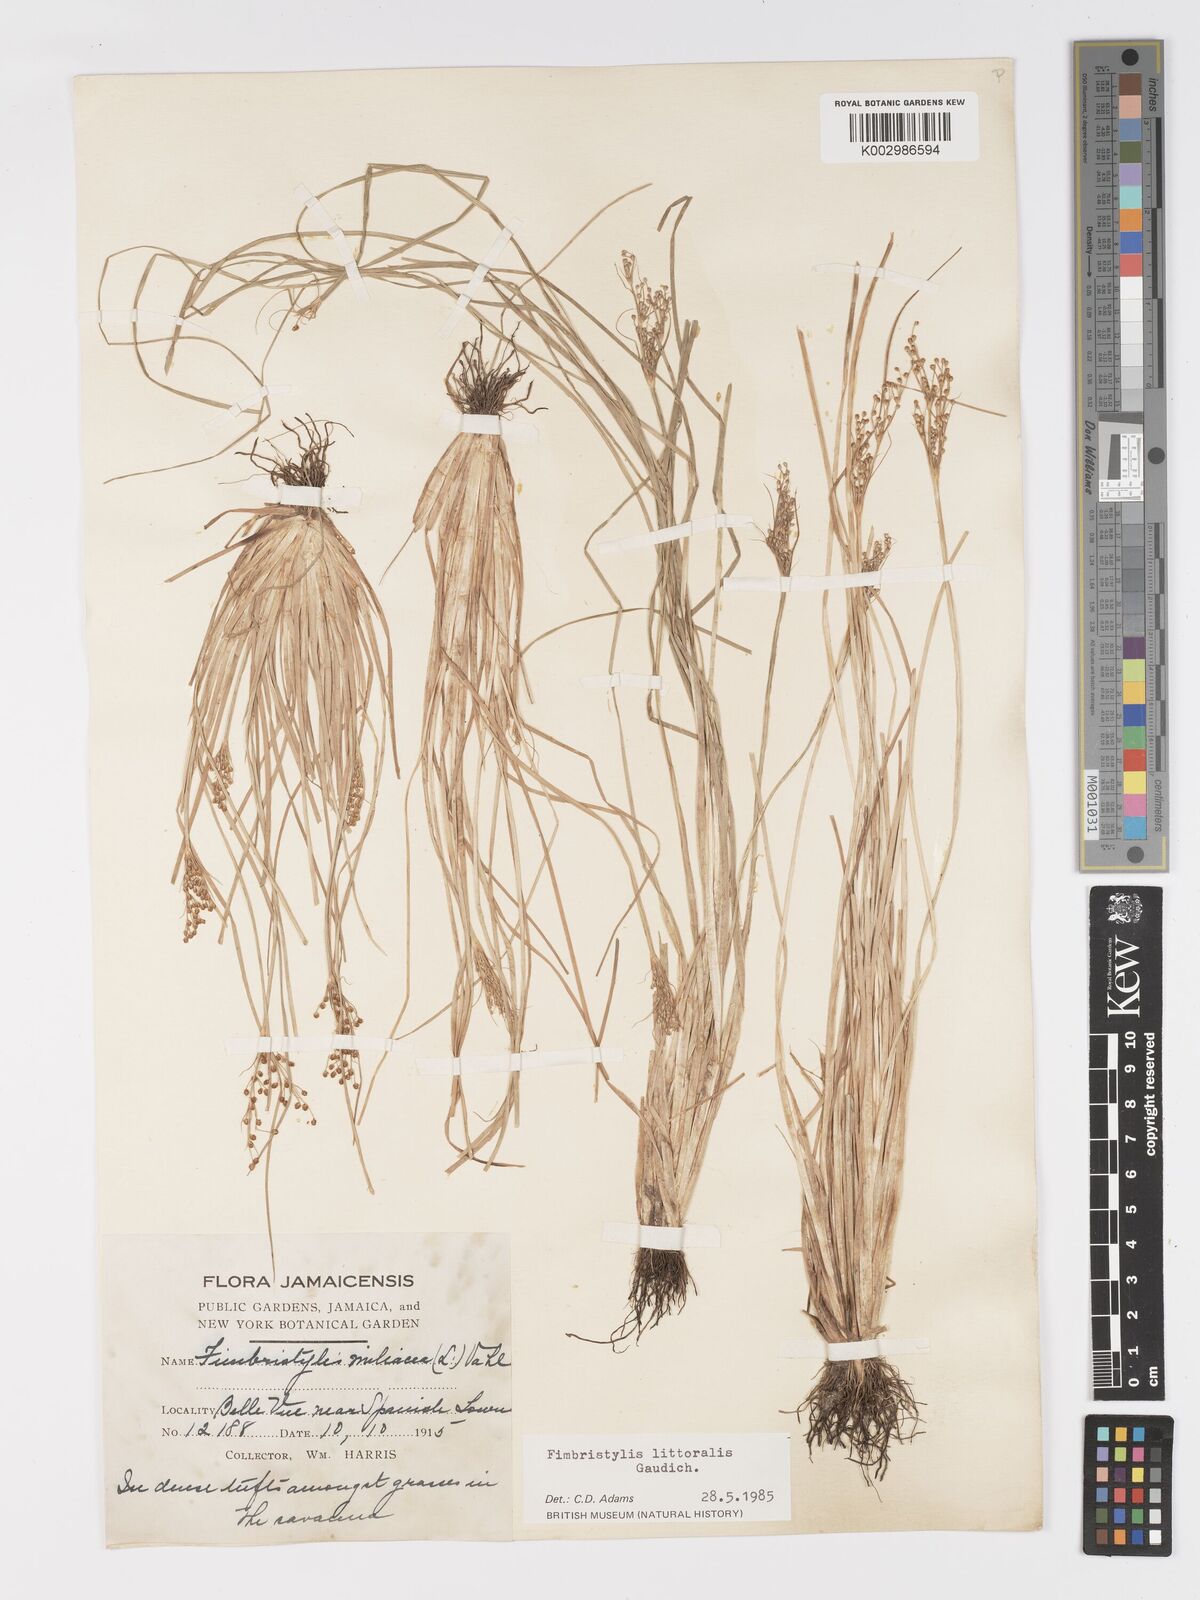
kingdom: Plantae
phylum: Tracheophyta
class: Liliopsida
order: Poales
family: Cyperaceae
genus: Fimbristylis
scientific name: Fimbristylis littoralis
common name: Fimbry
